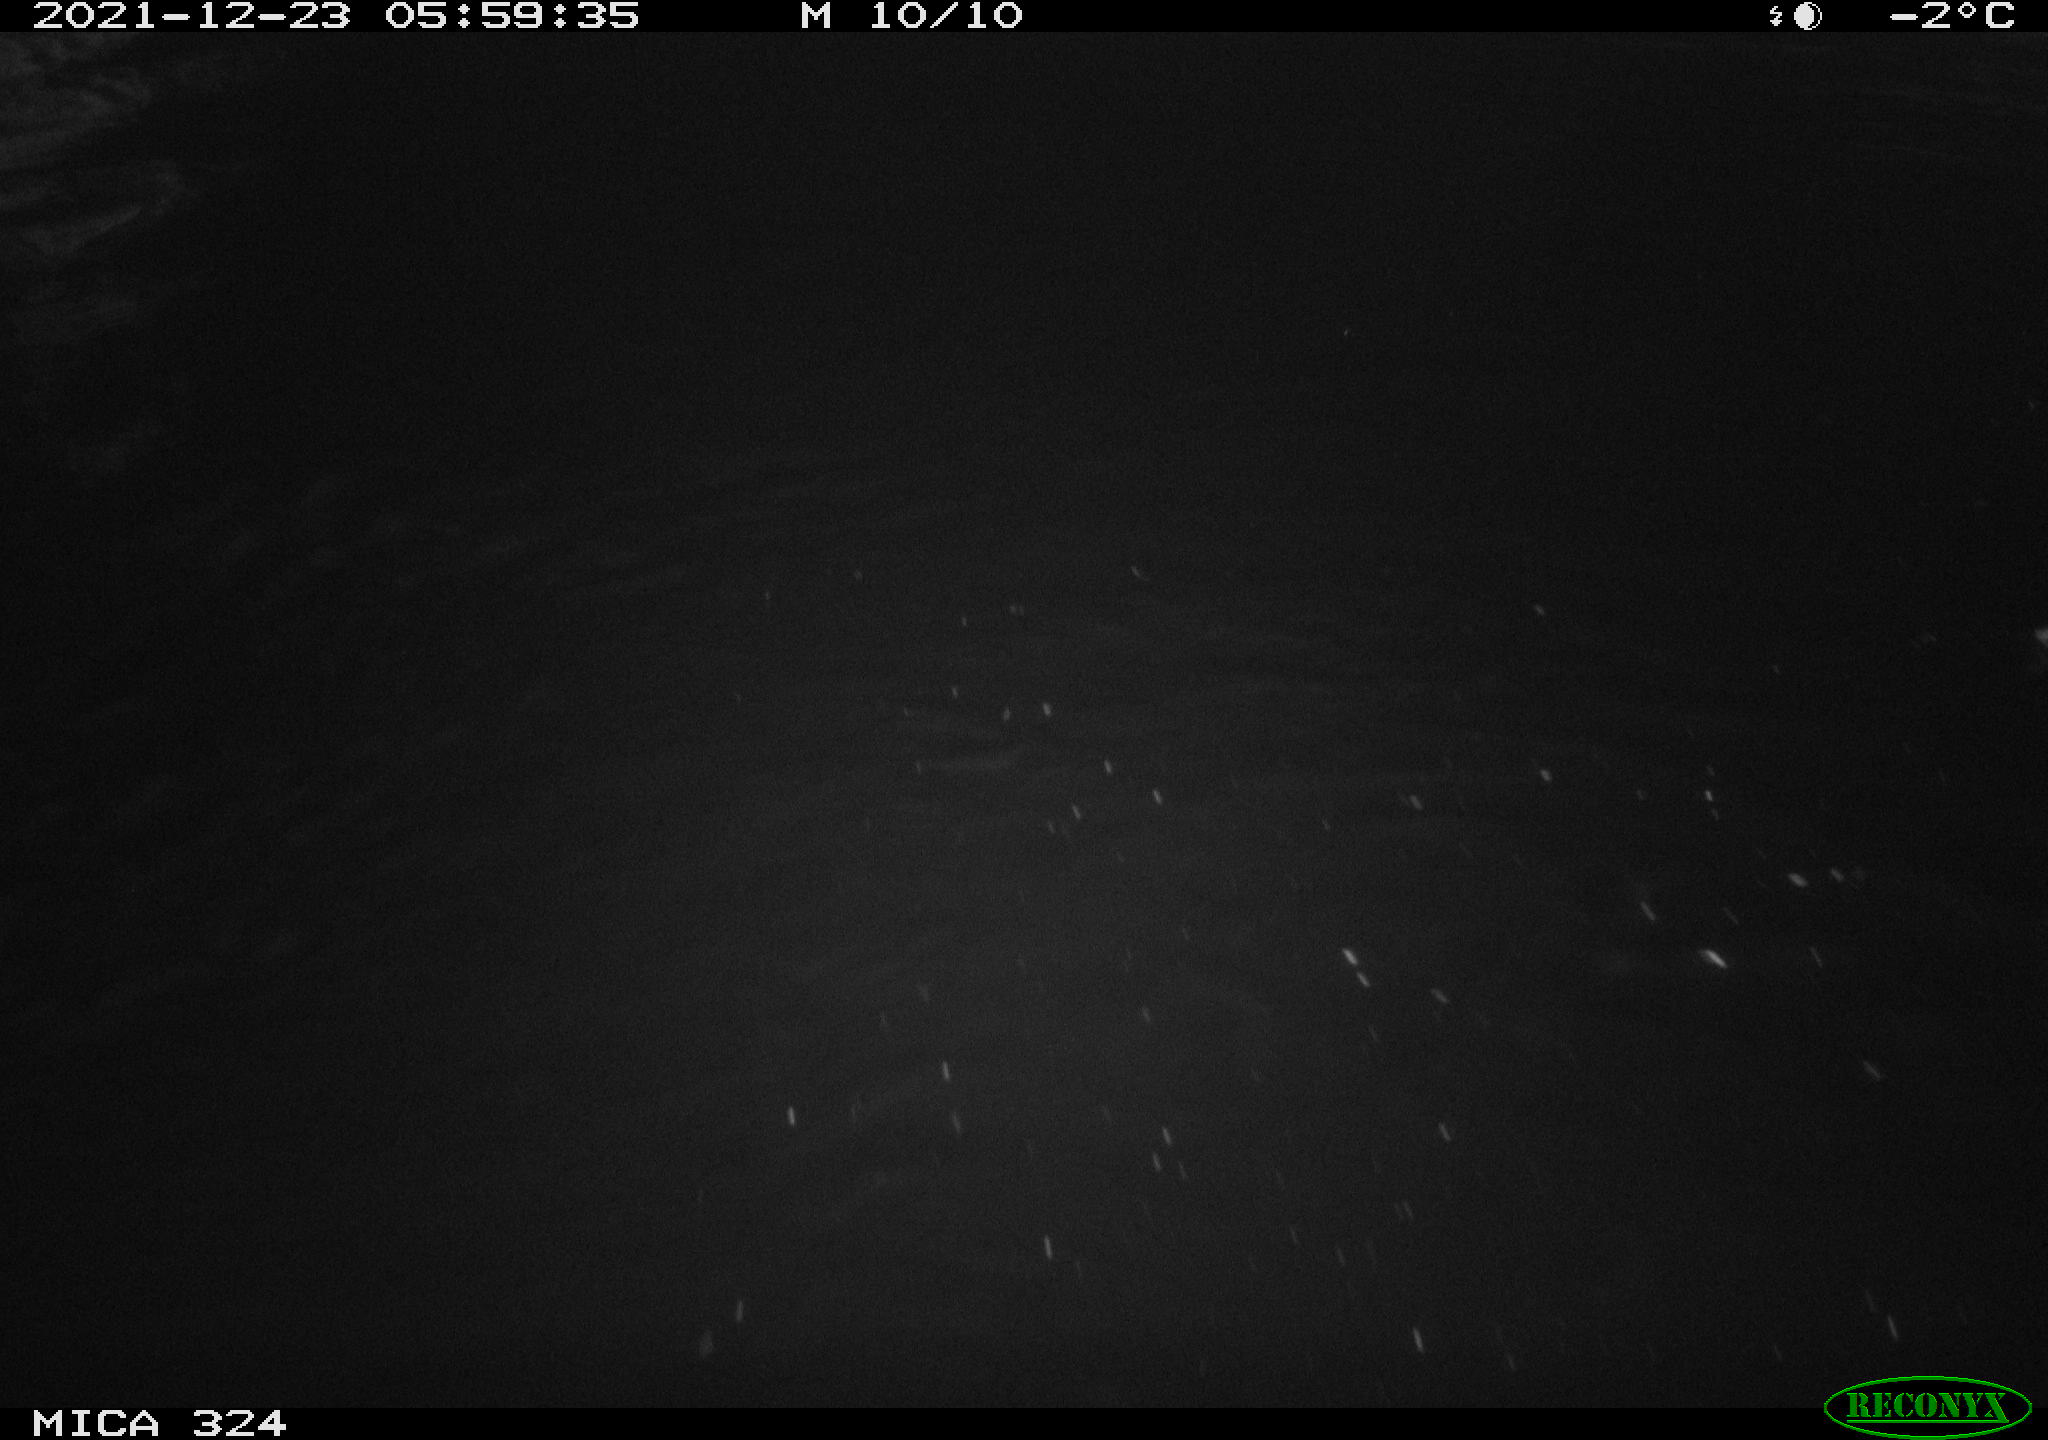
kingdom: Animalia
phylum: Chordata
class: Aves
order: Anseriformes
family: Anatidae
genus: Anas
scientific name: Anas platyrhynchos
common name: Mallard
